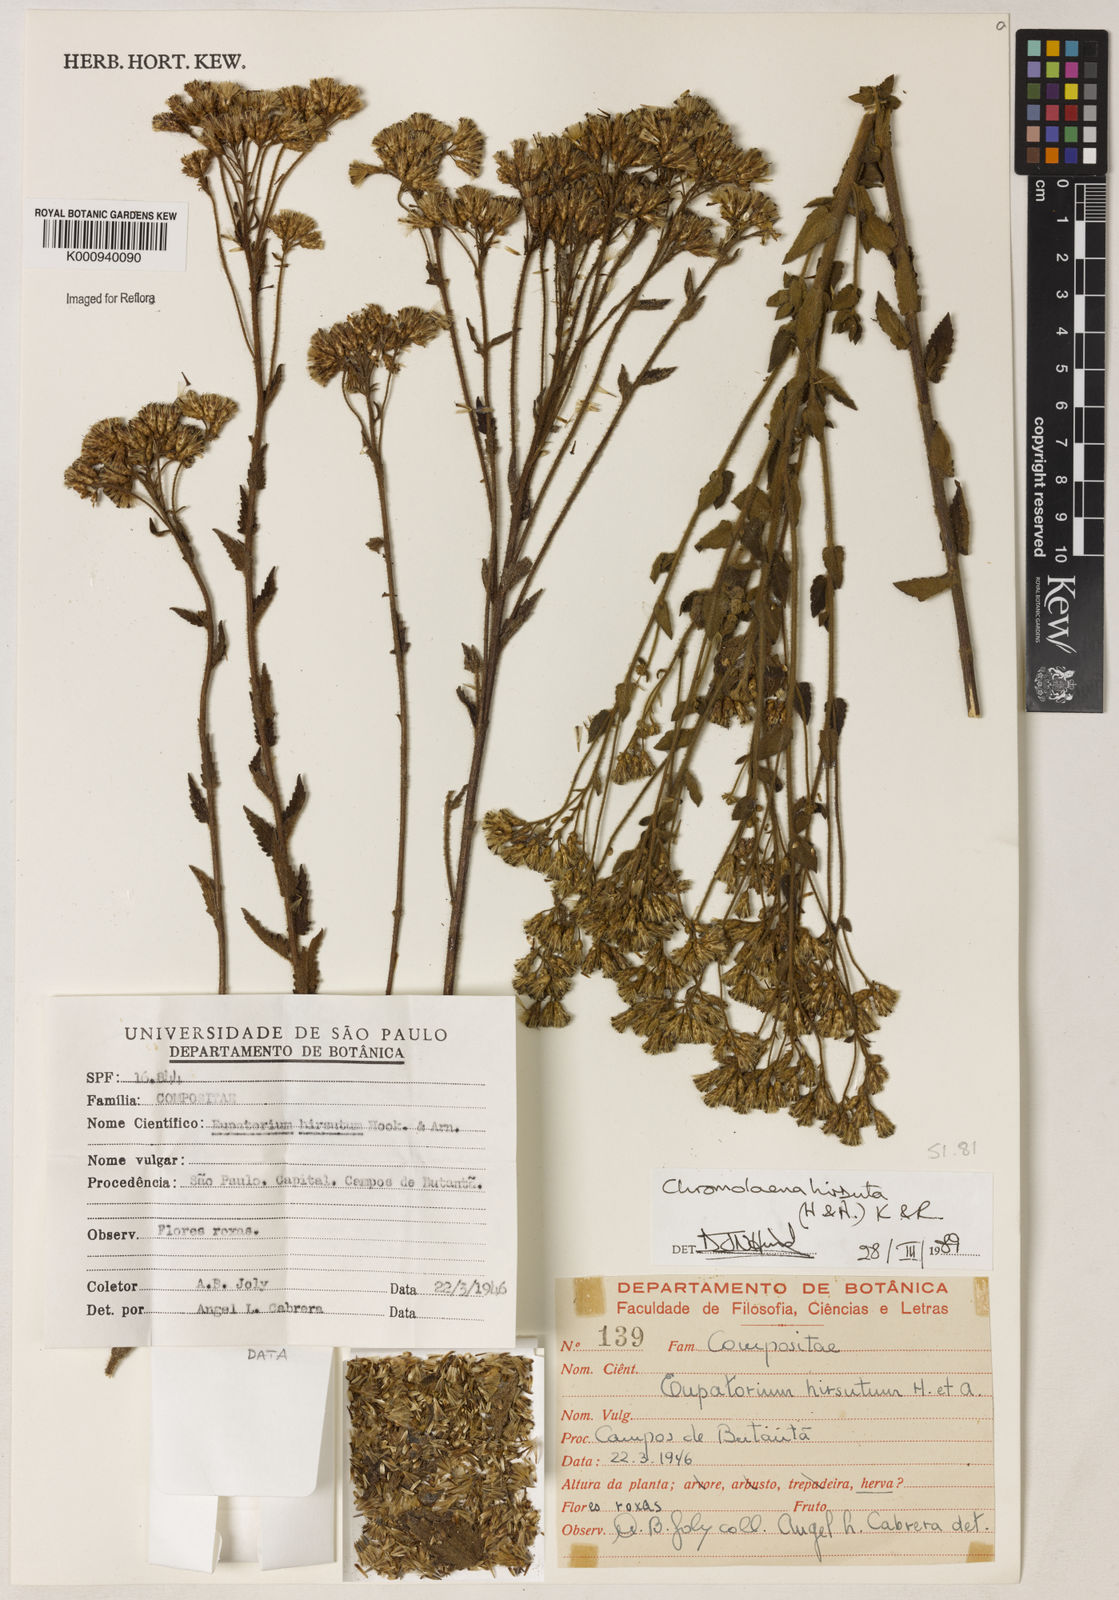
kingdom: Plantae
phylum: Tracheophyta
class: Magnoliopsida
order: Asterales
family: Asteraceae
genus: Chromolaena
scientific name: Chromolaena hirsuta
